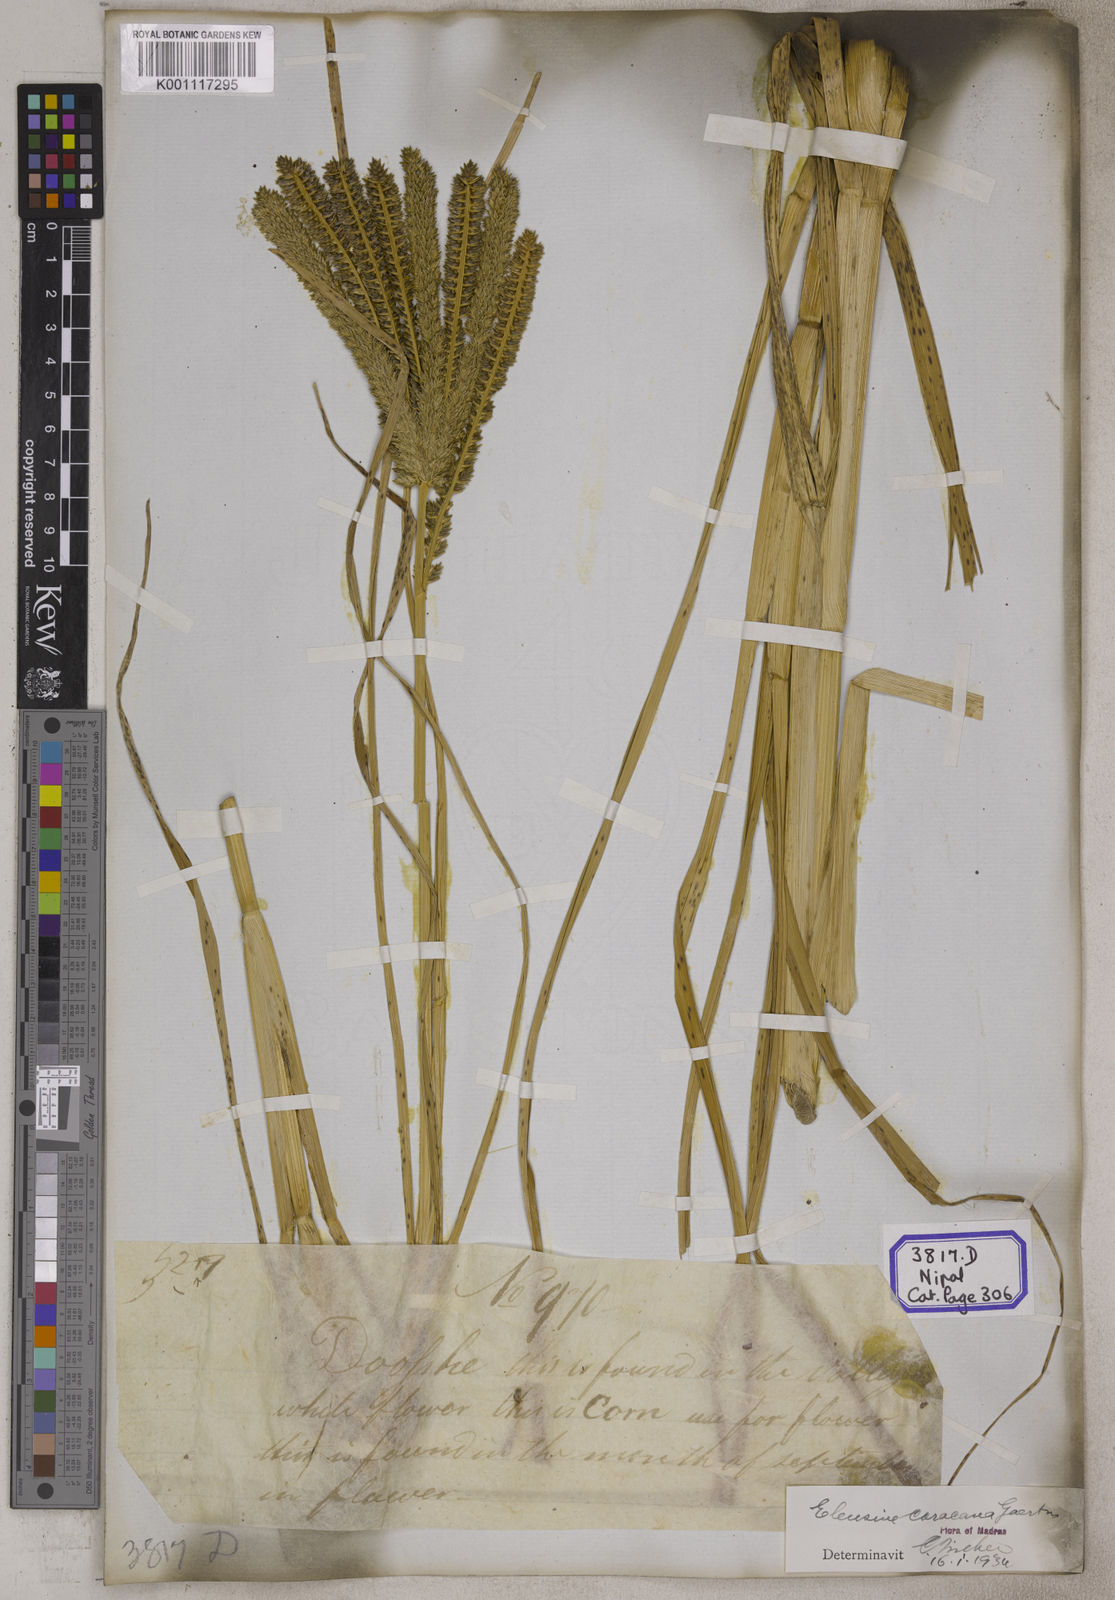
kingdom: Plantae
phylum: Tracheophyta
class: Liliopsida
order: Poales
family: Poaceae
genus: Eleusine
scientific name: Eleusine
